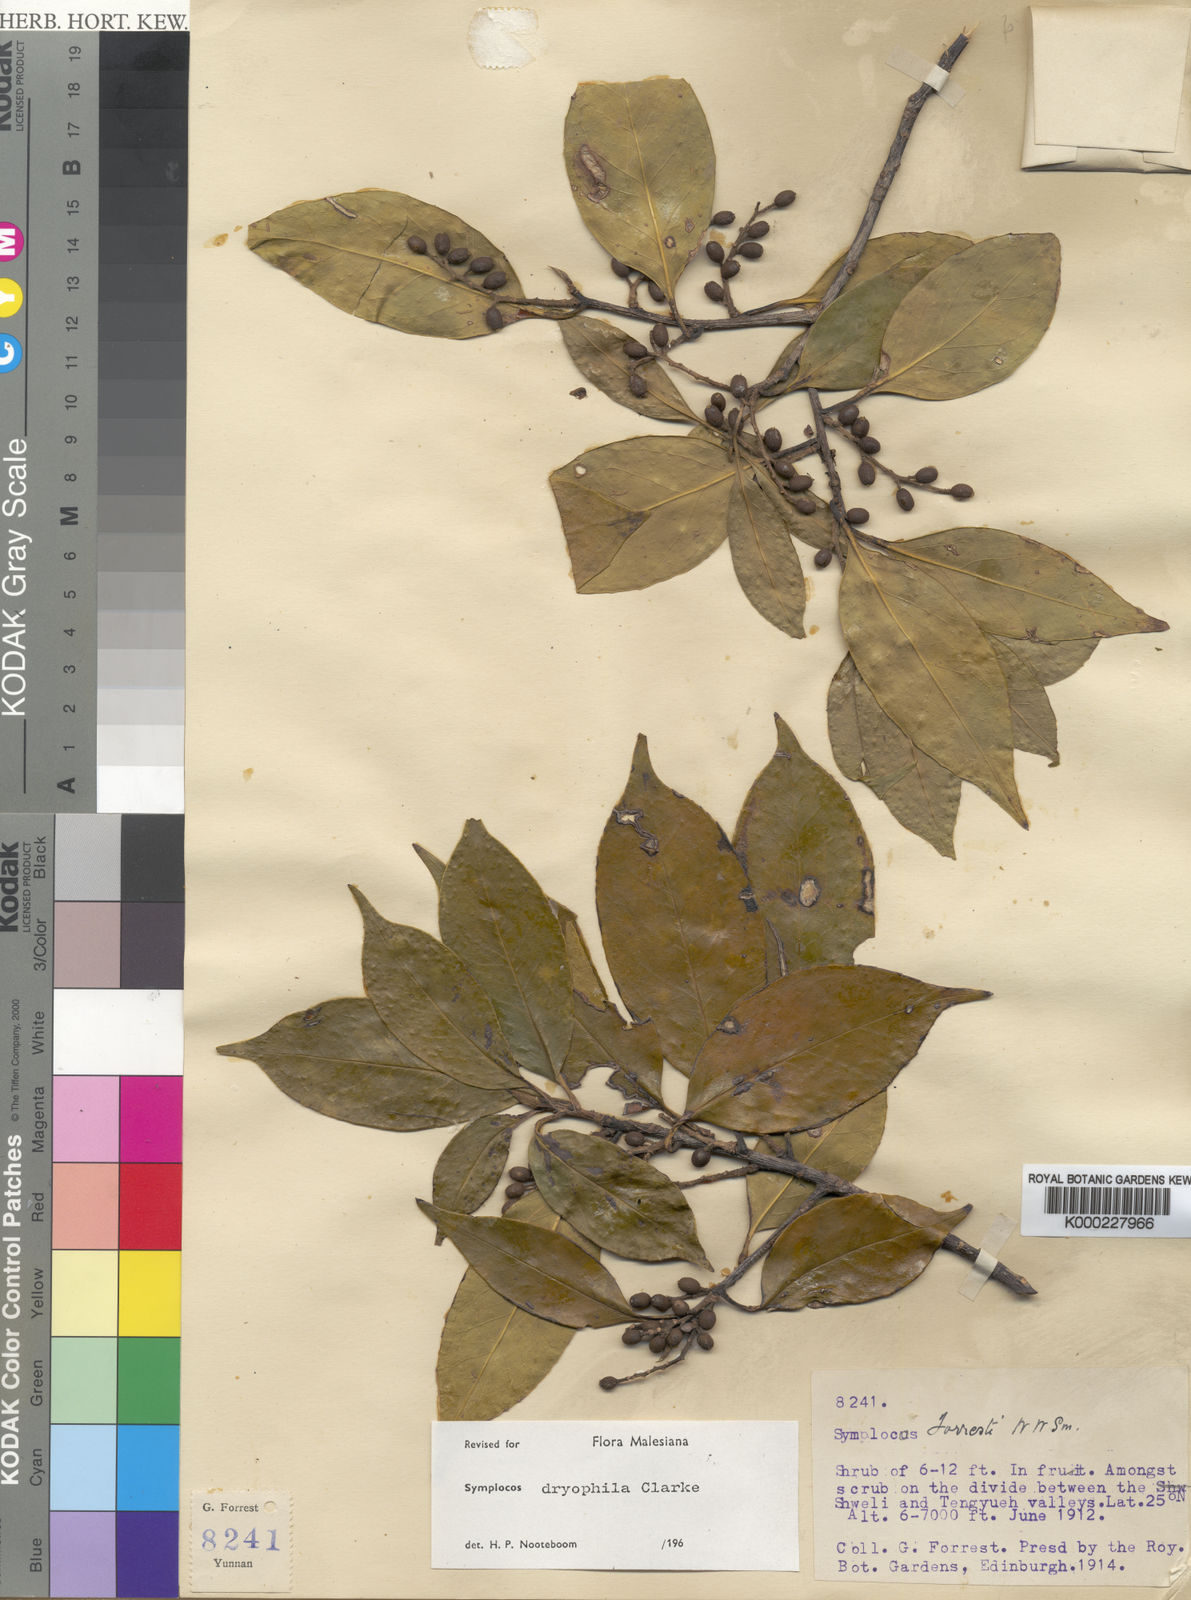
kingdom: Plantae
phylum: Tracheophyta
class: Magnoliopsida
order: Ericales
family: Symplocaceae
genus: Symplocos
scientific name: Symplocos dryophila
